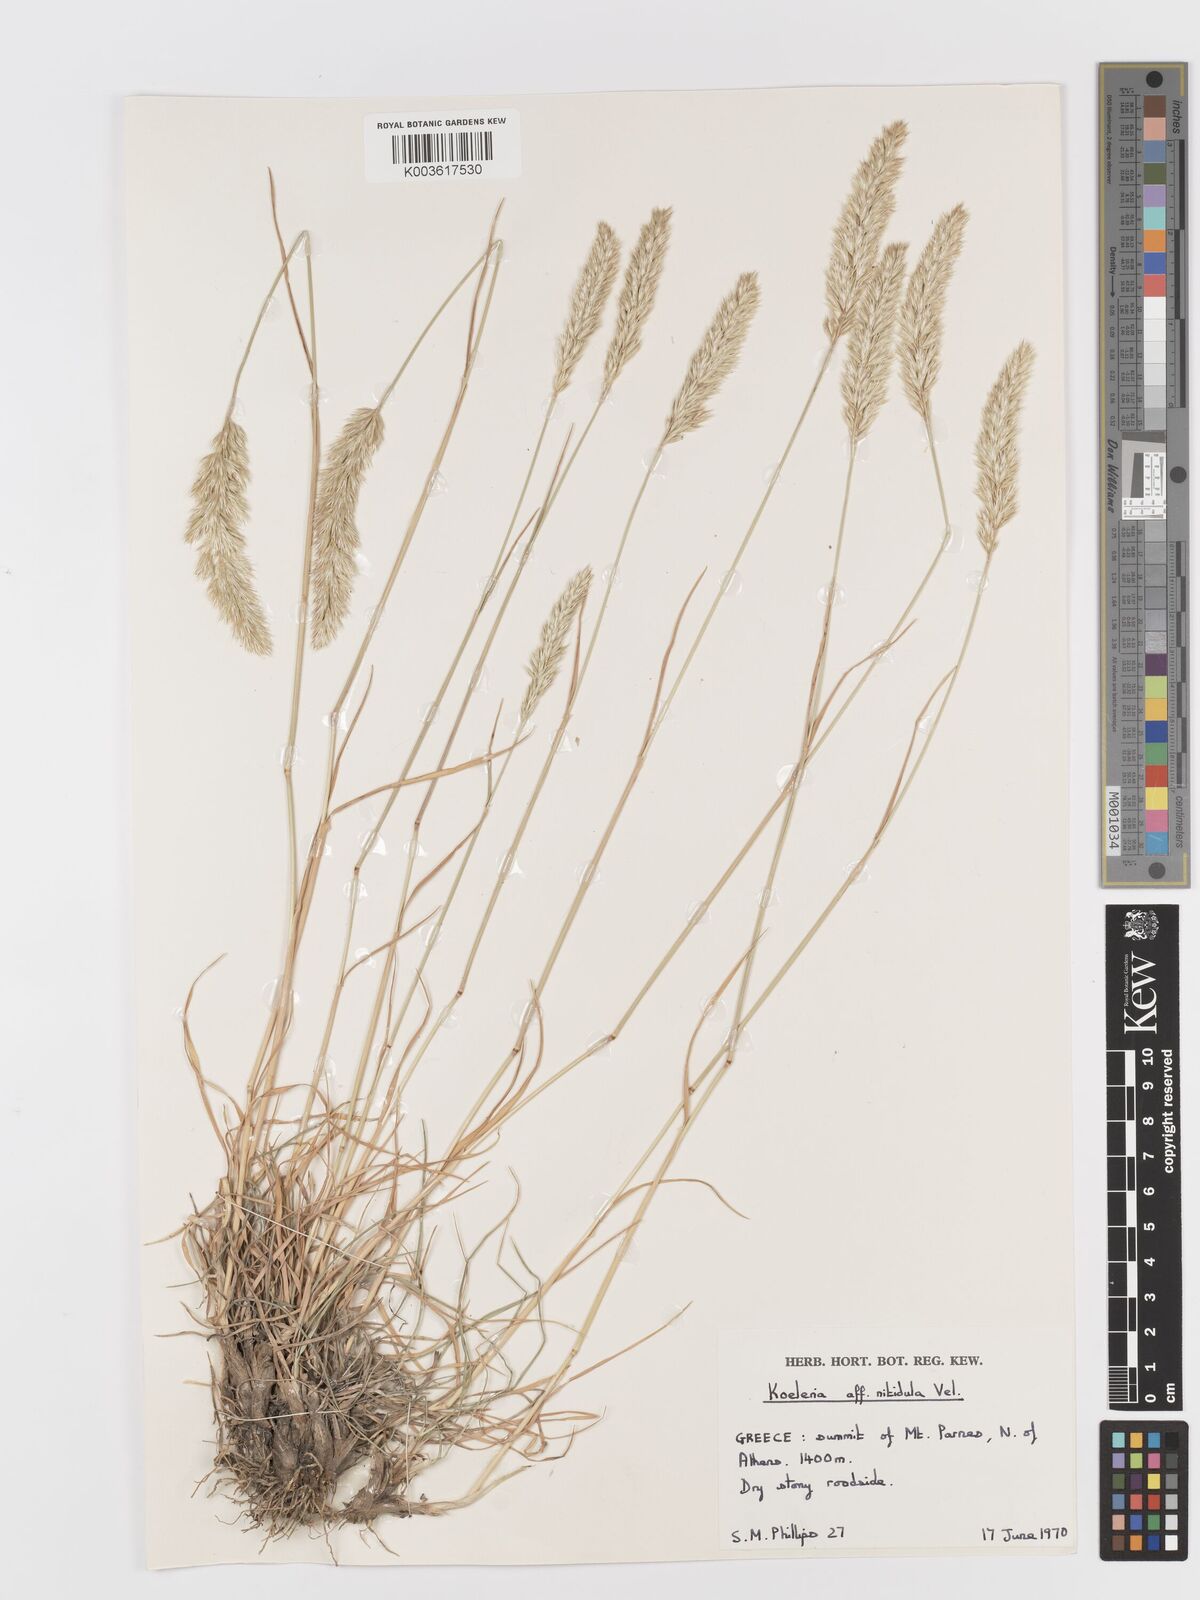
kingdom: Plantae
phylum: Tracheophyta
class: Liliopsida
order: Poales
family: Poaceae
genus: Koeleria
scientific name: Koeleria
